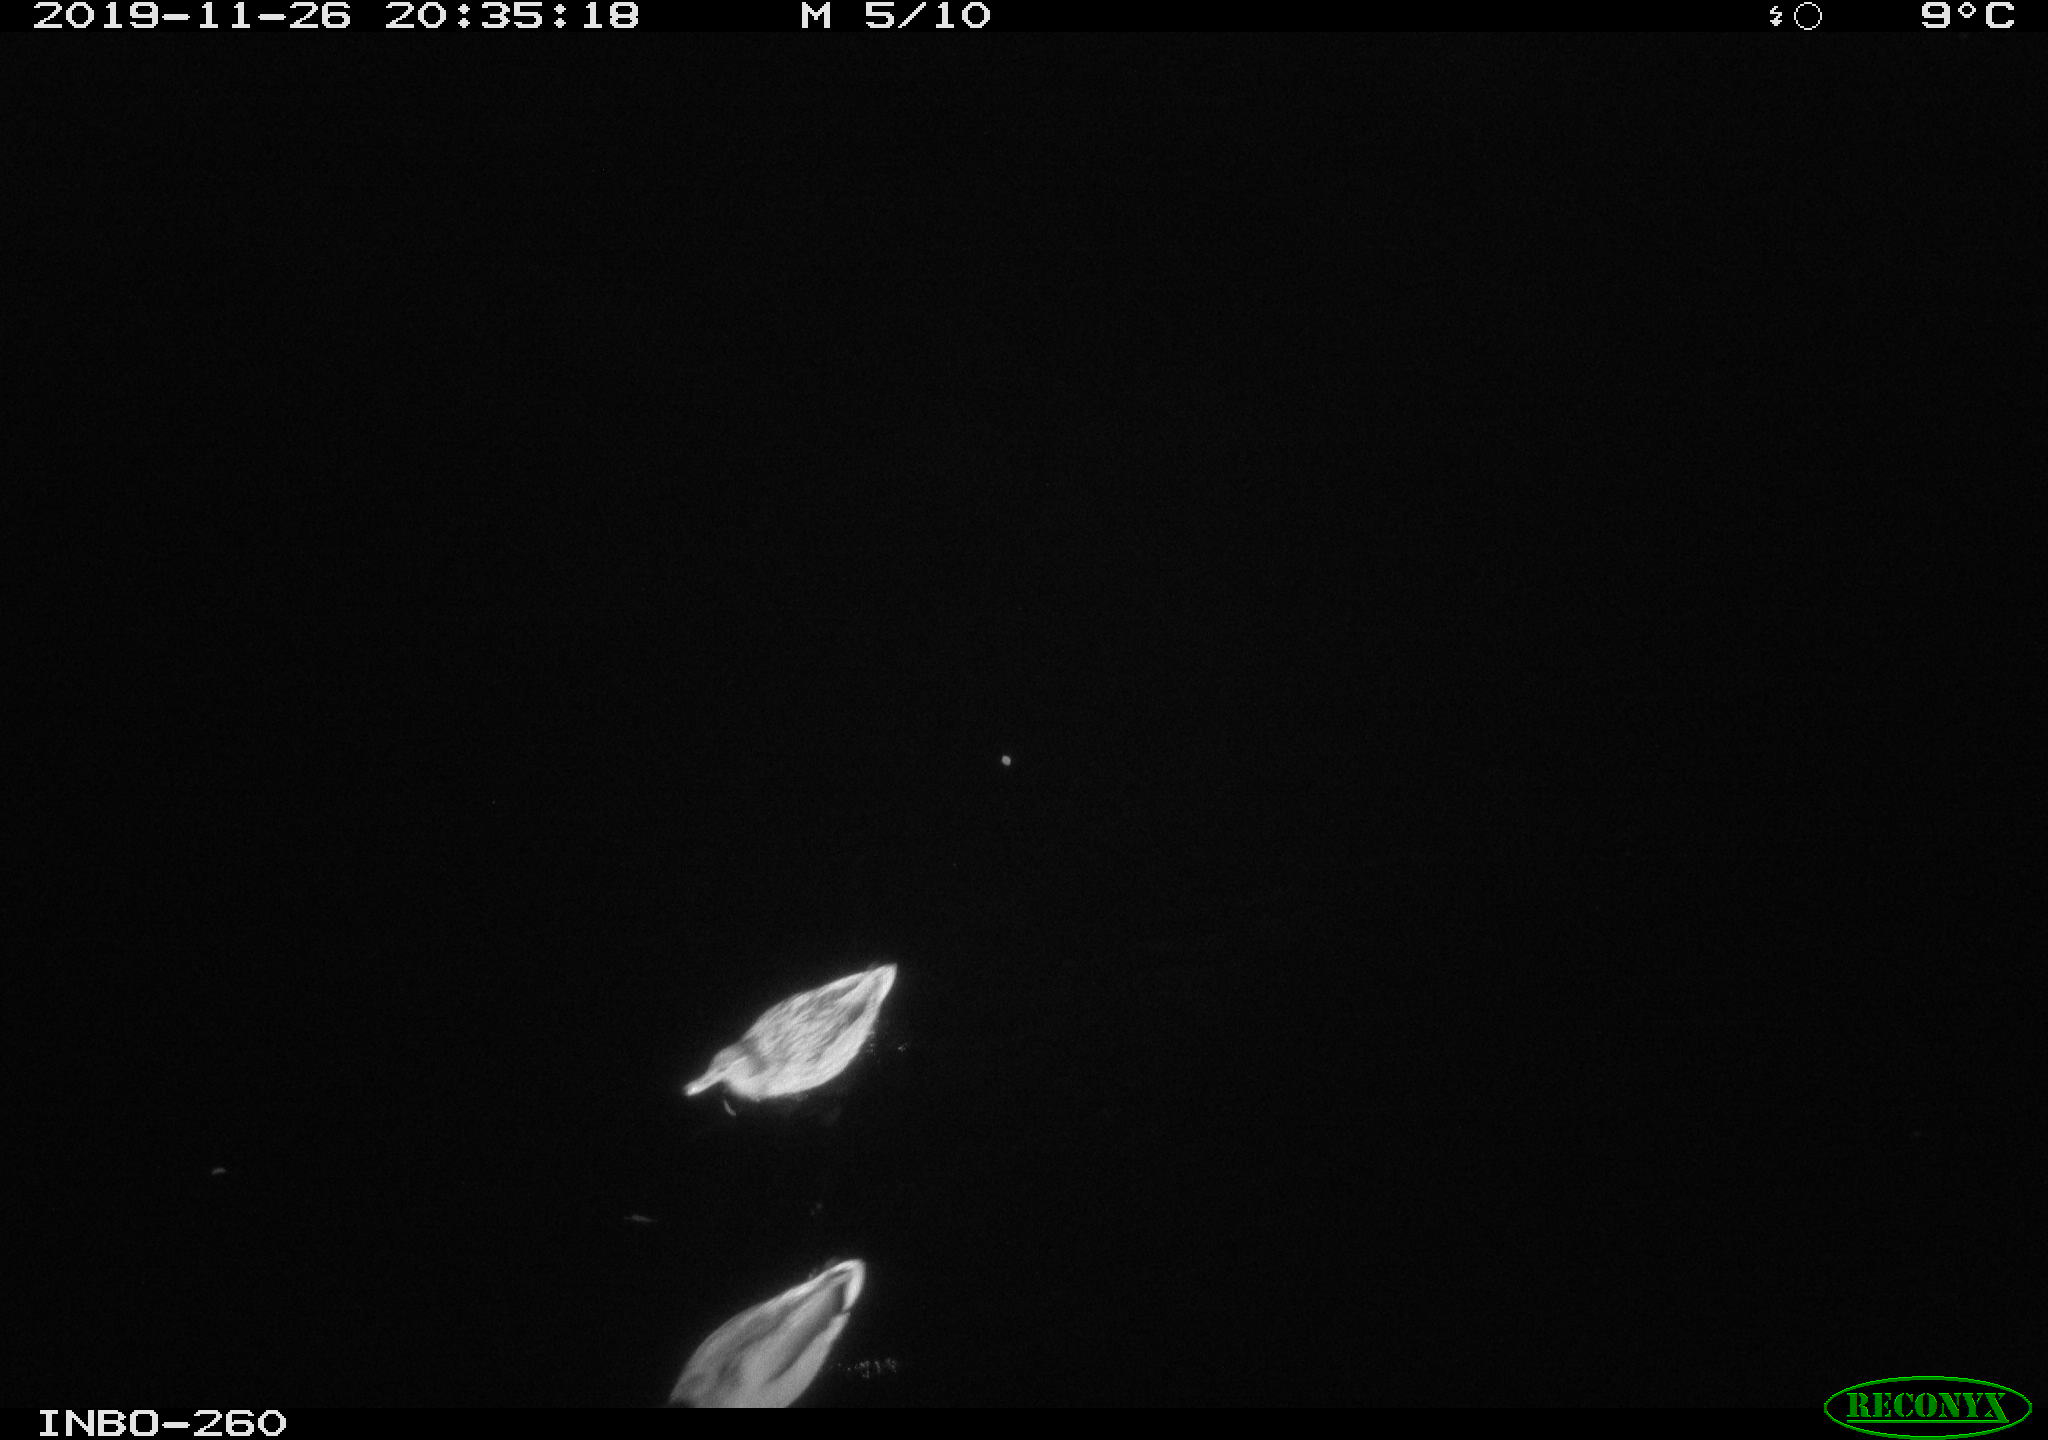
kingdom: Animalia
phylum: Chordata
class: Aves
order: Anseriformes
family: Anatidae
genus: Anas
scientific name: Anas platyrhynchos
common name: Mallard
